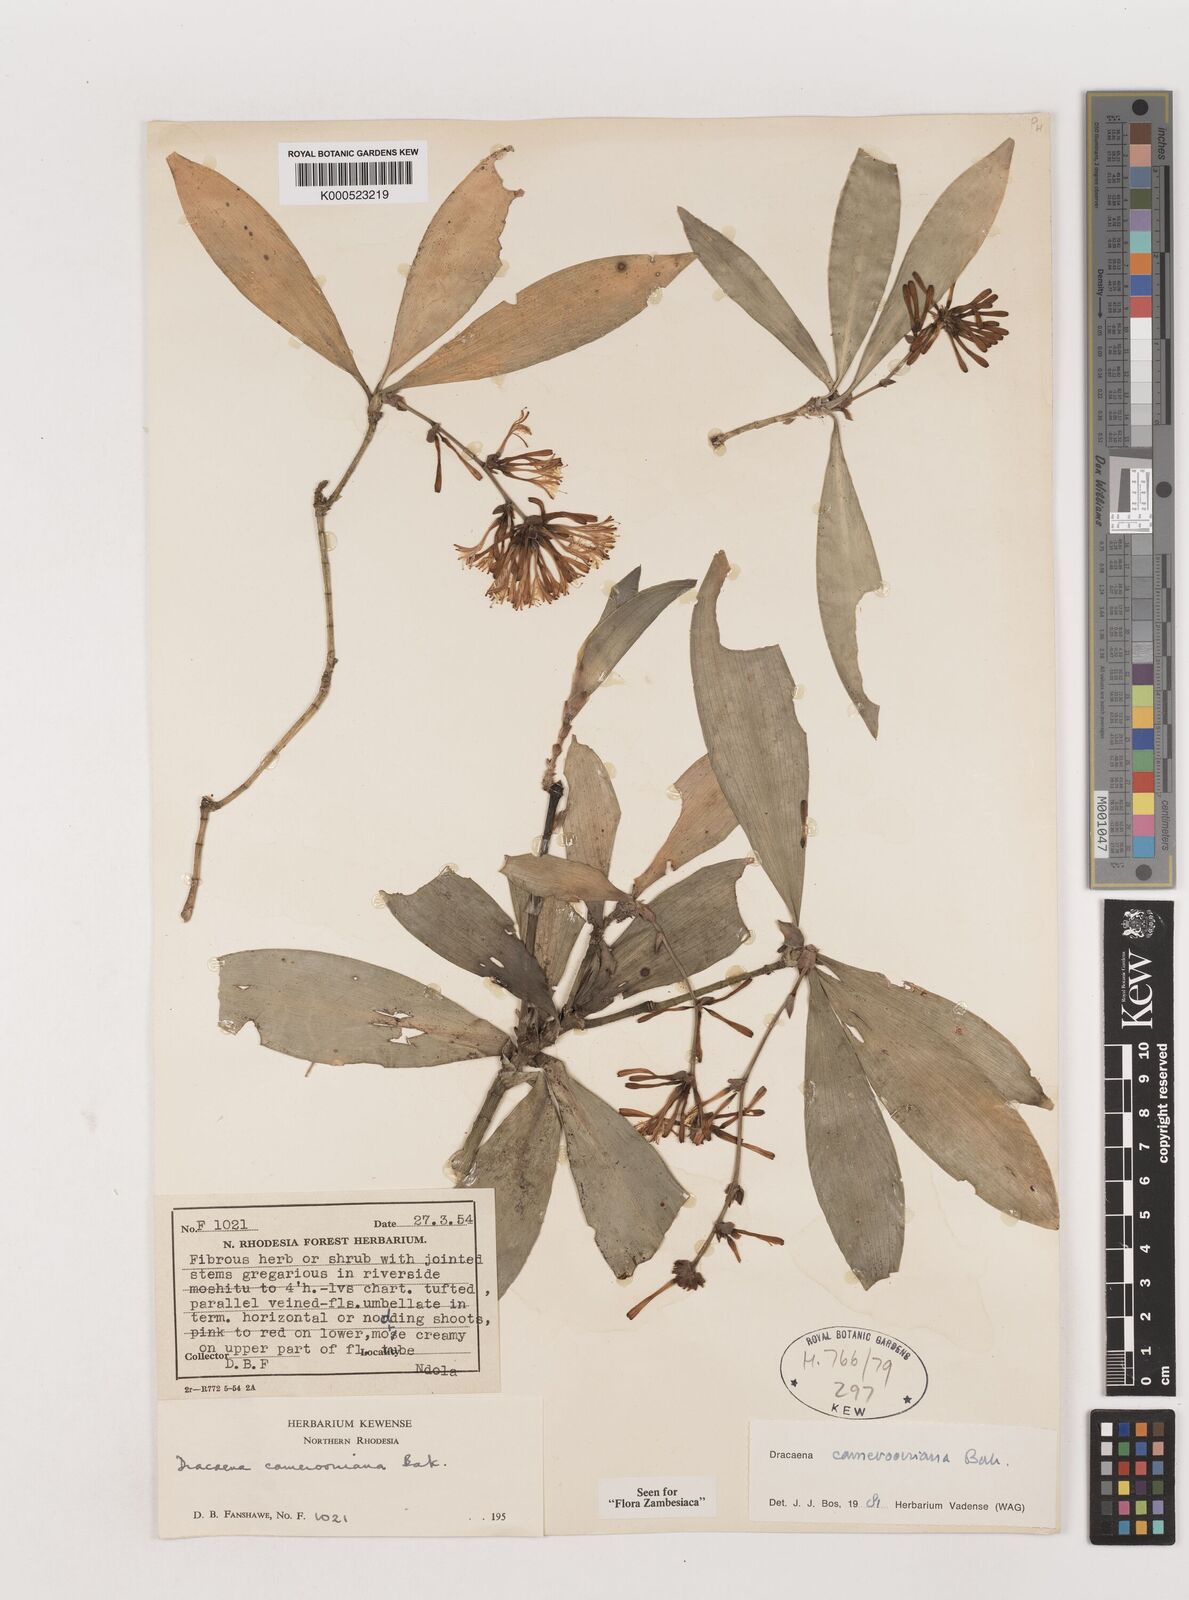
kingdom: Plantae
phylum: Tracheophyta
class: Liliopsida
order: Asparagales
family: Asparagaceae
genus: Dracaena
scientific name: Dracaena camerooniana
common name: Dragon tree
